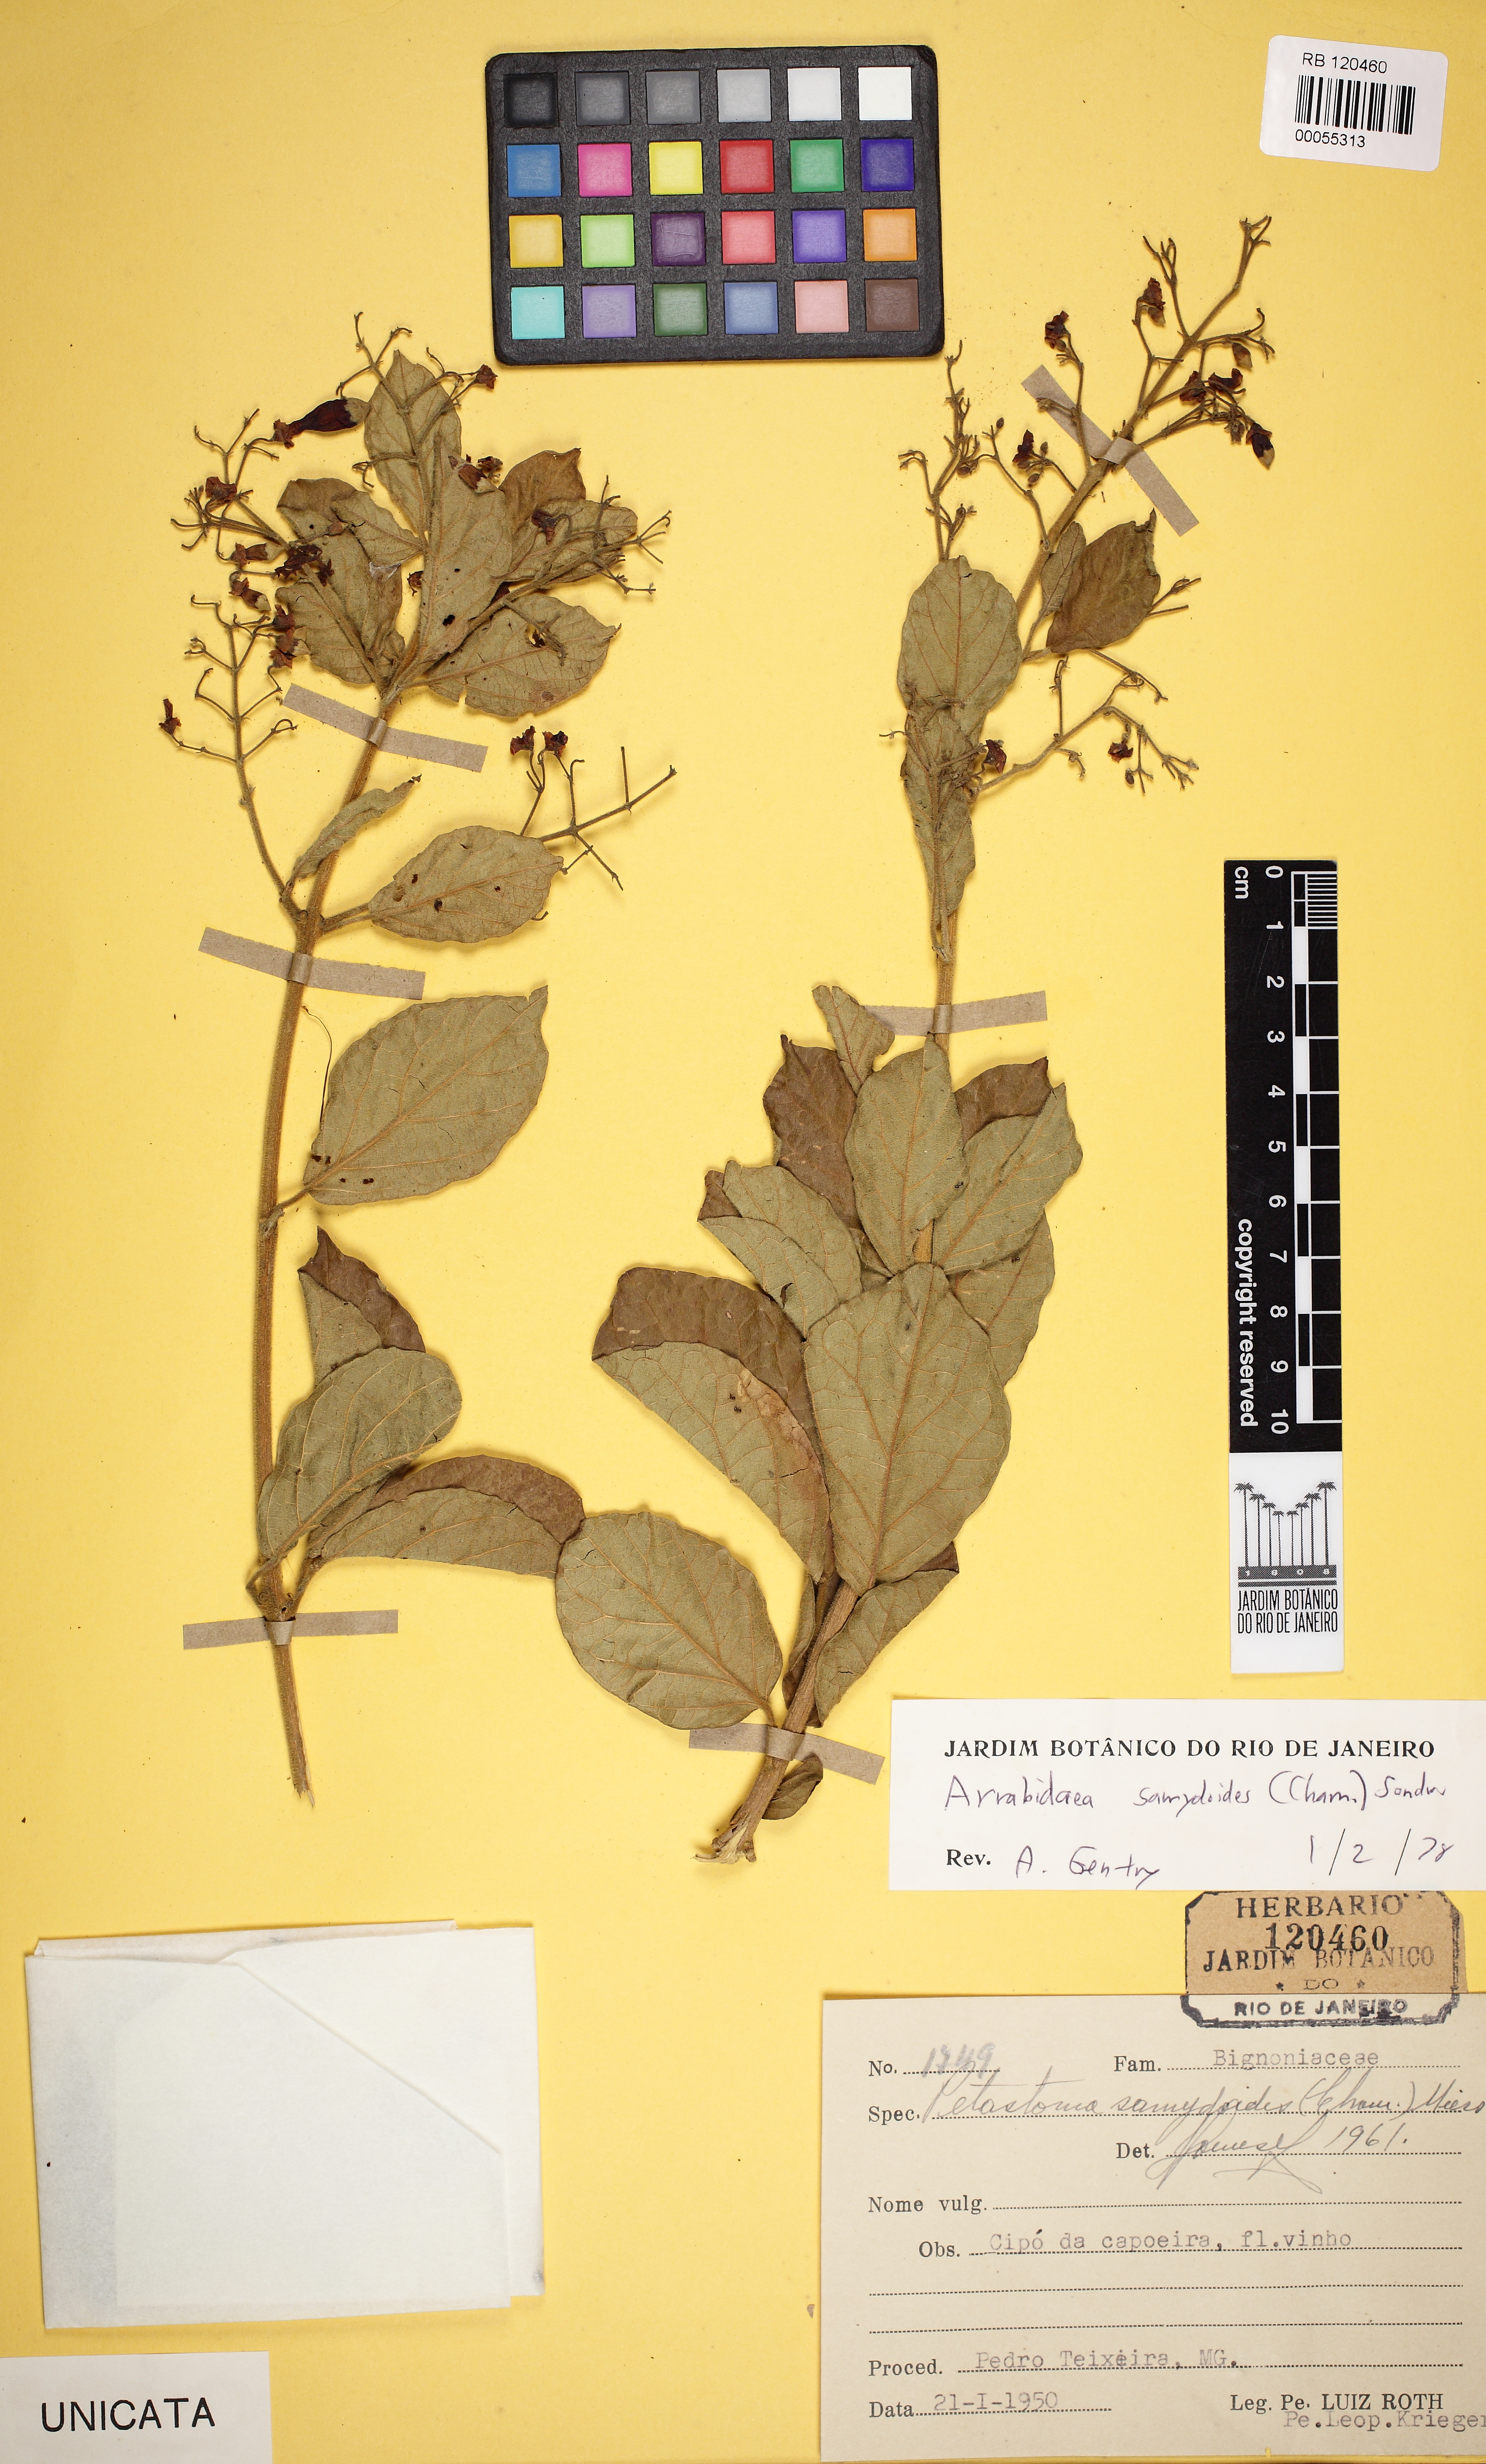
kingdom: Plantae
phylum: Tracheophyta
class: Magnoliopsida
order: Lamiales
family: Bignoniaceae
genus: Fridericia
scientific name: Fridericia samydoides
